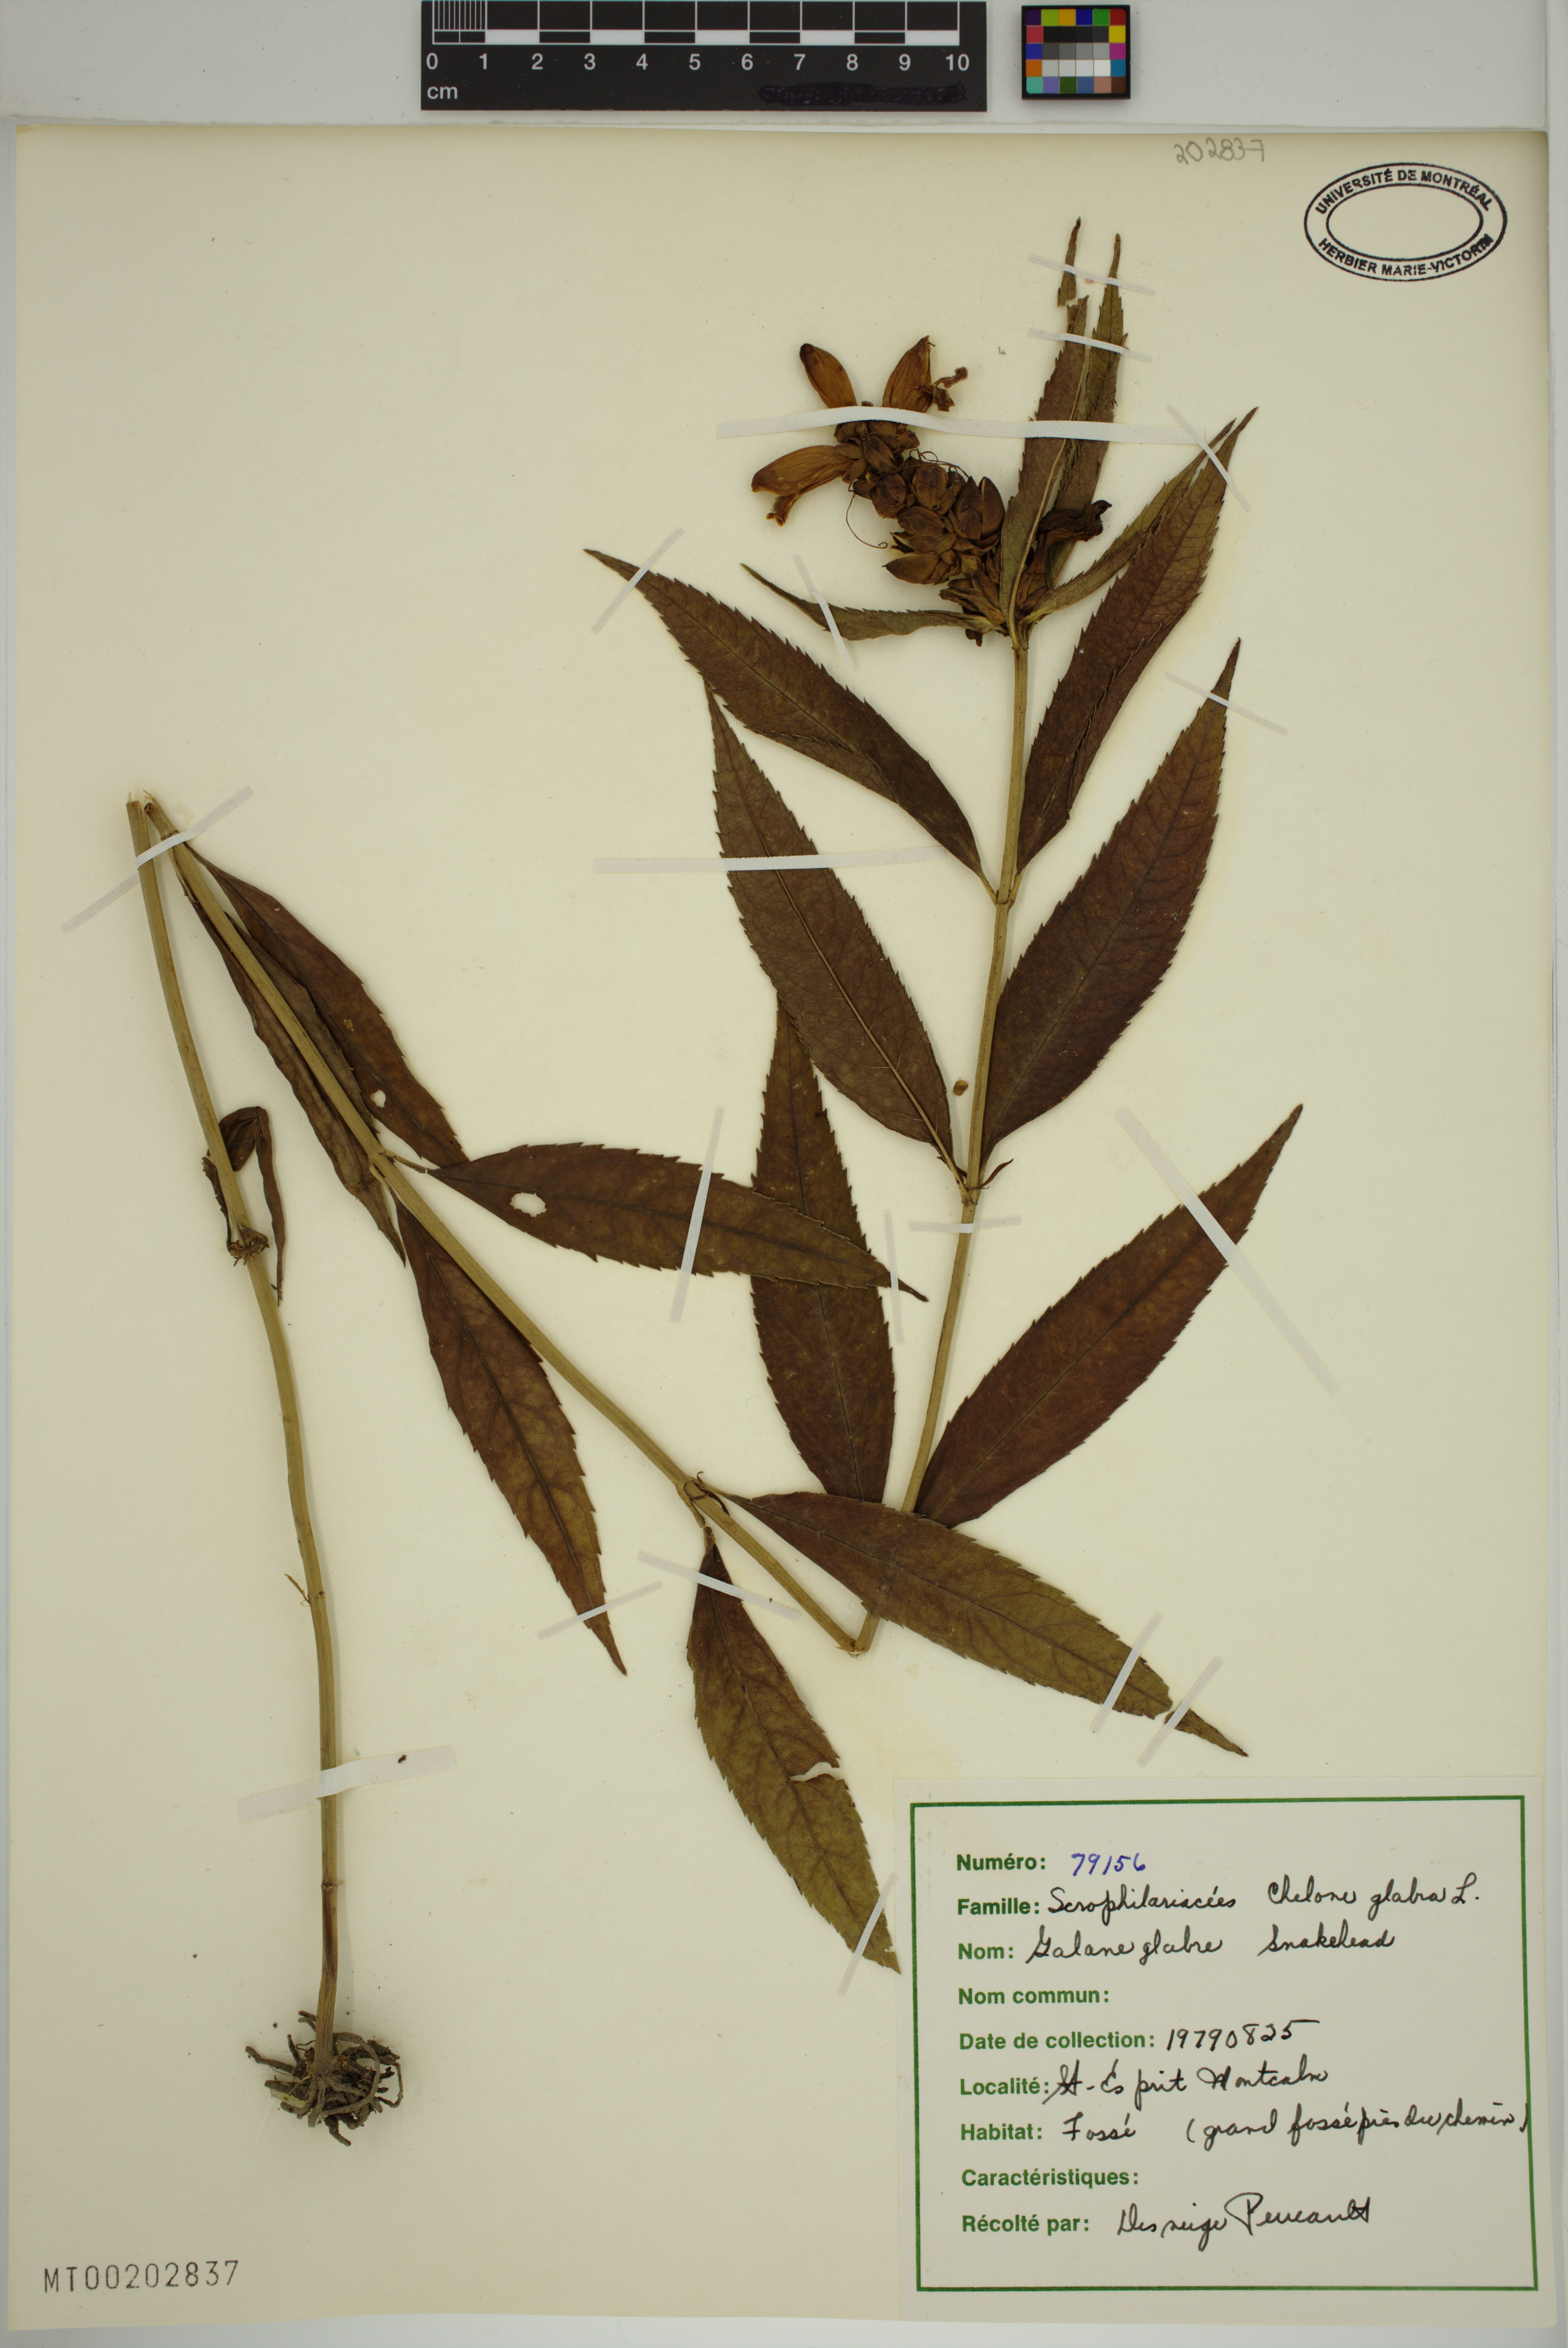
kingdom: Plantae
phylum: Tracheophyta
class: Magnoliopsida
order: Lamiales
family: Plantaginaceae
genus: Chelone
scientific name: Chelone glabra
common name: Snakehead
